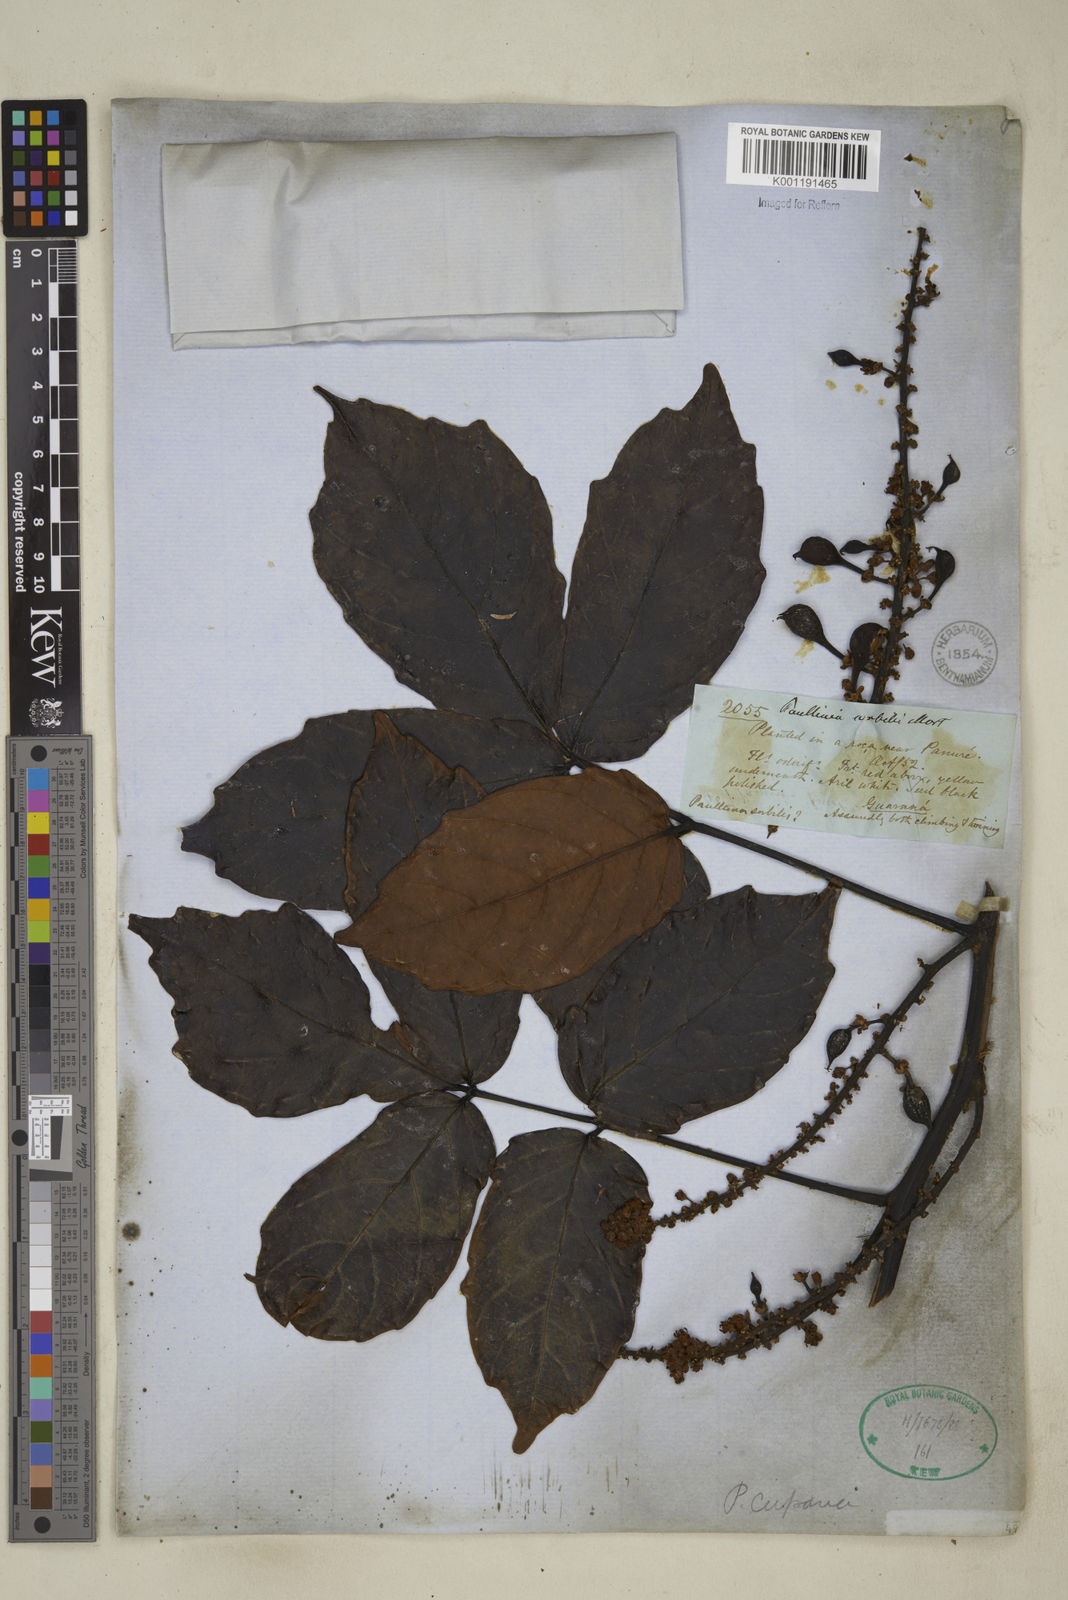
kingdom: Plantae
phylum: Tracheophyta
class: Magnoliopsida
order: Sapindales
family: Sapindaceae
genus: Paullinia
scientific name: Paullinia cupana
